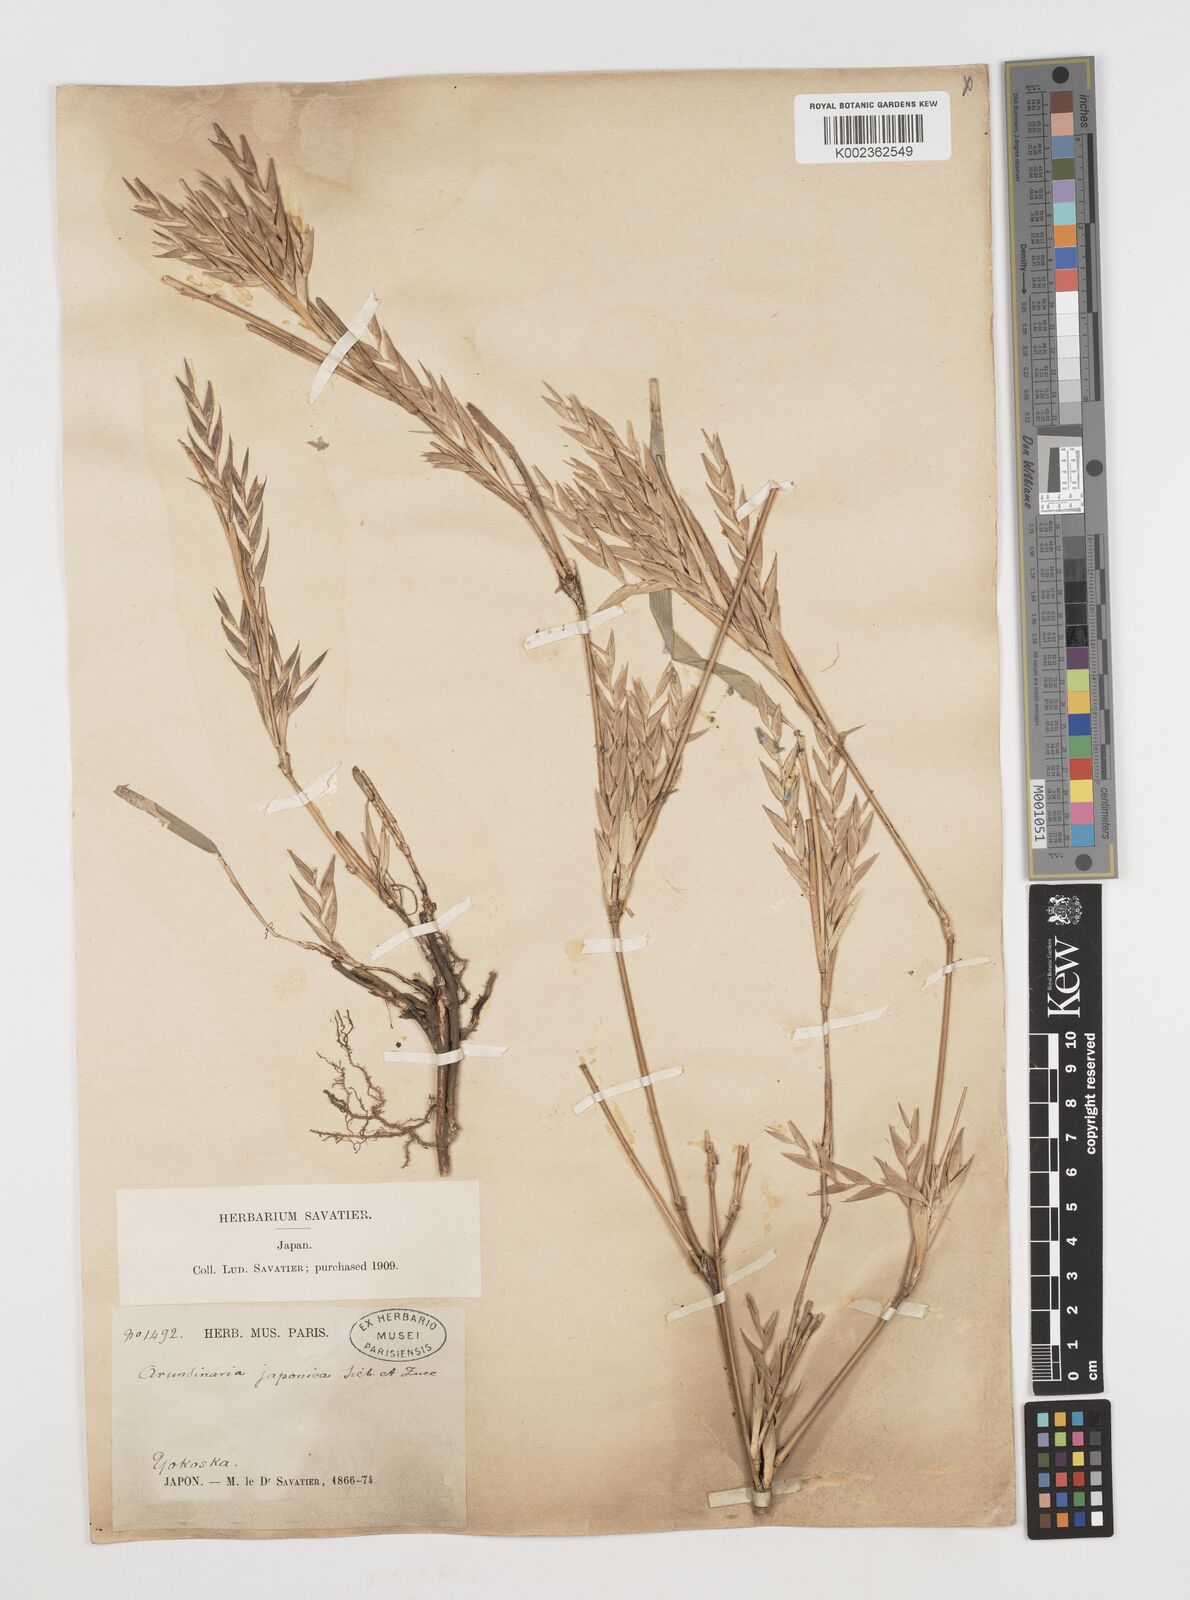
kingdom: Plantae
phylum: Tracheophyta
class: Liliopsida
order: Poales
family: Poaceae
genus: Pseudosasa
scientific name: Pseudosasa japonica
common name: Arrow bamboo
